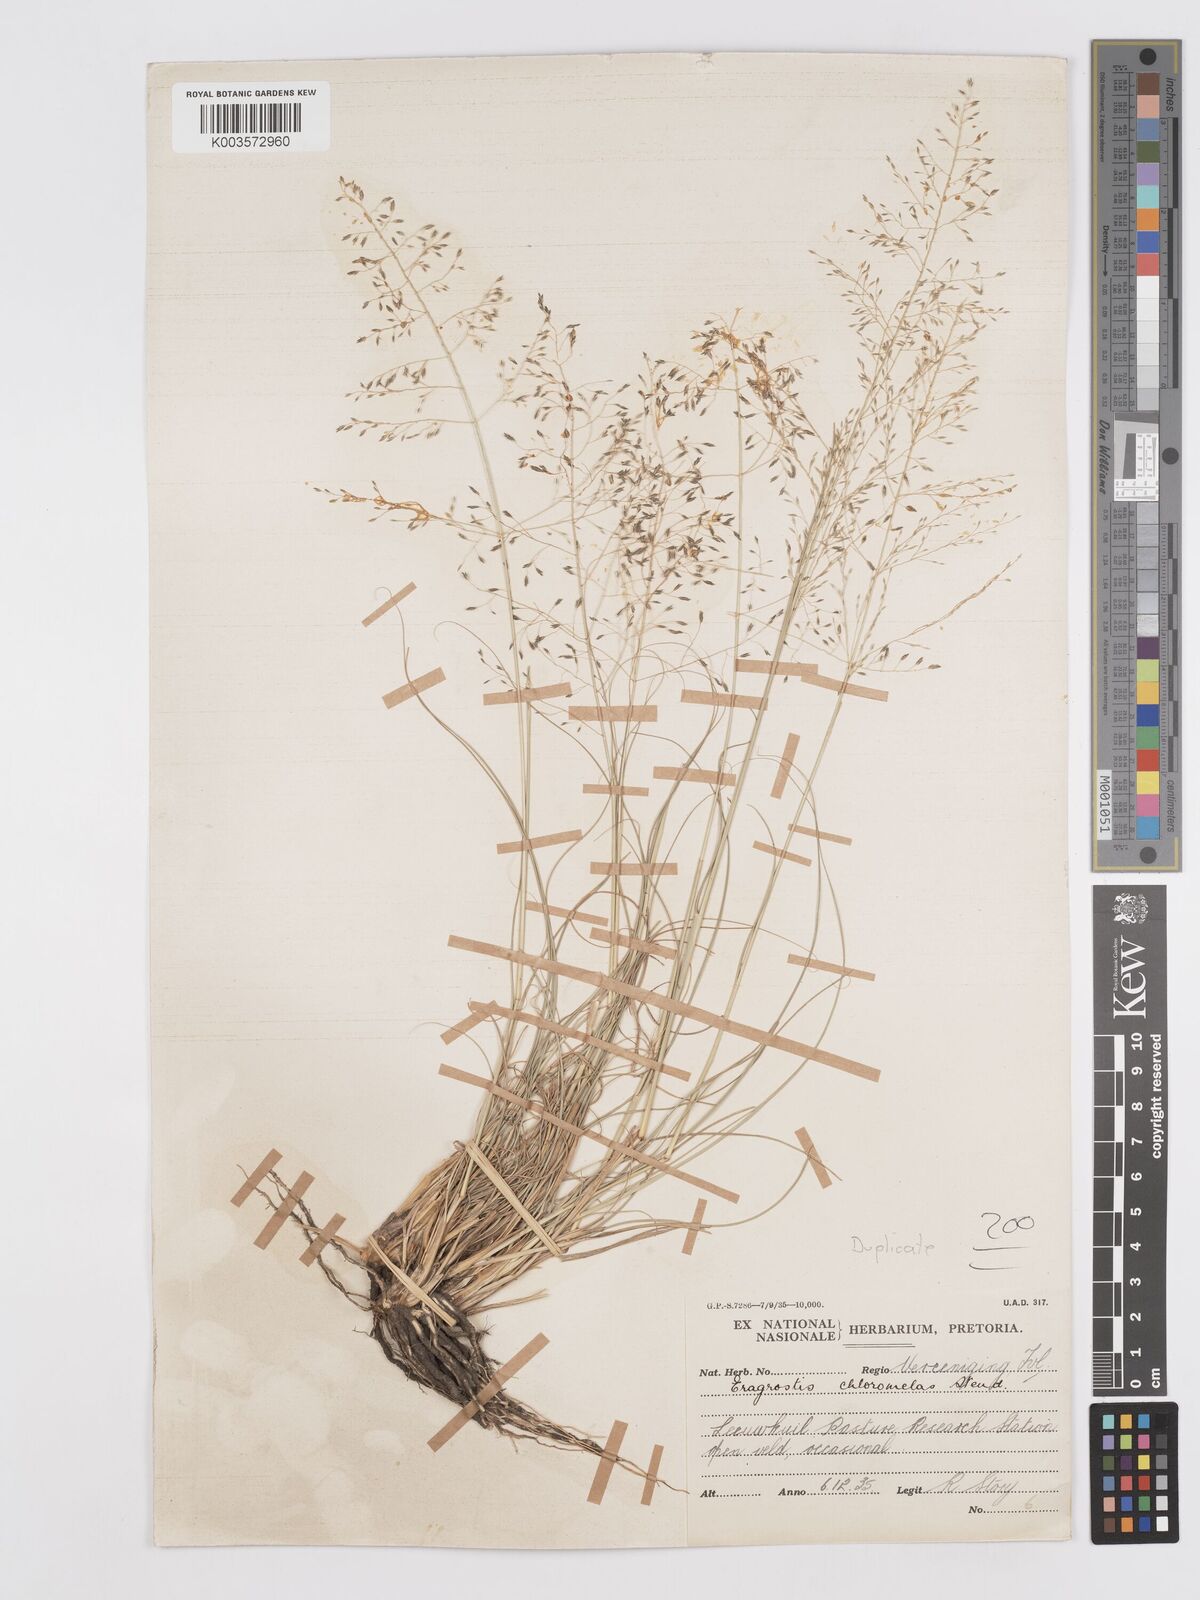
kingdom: Plantae
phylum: Tracheophyta
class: Liliopsida
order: Poales
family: Poaceae
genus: Eragrostis
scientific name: Eragrostis curvula
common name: African love-grass
